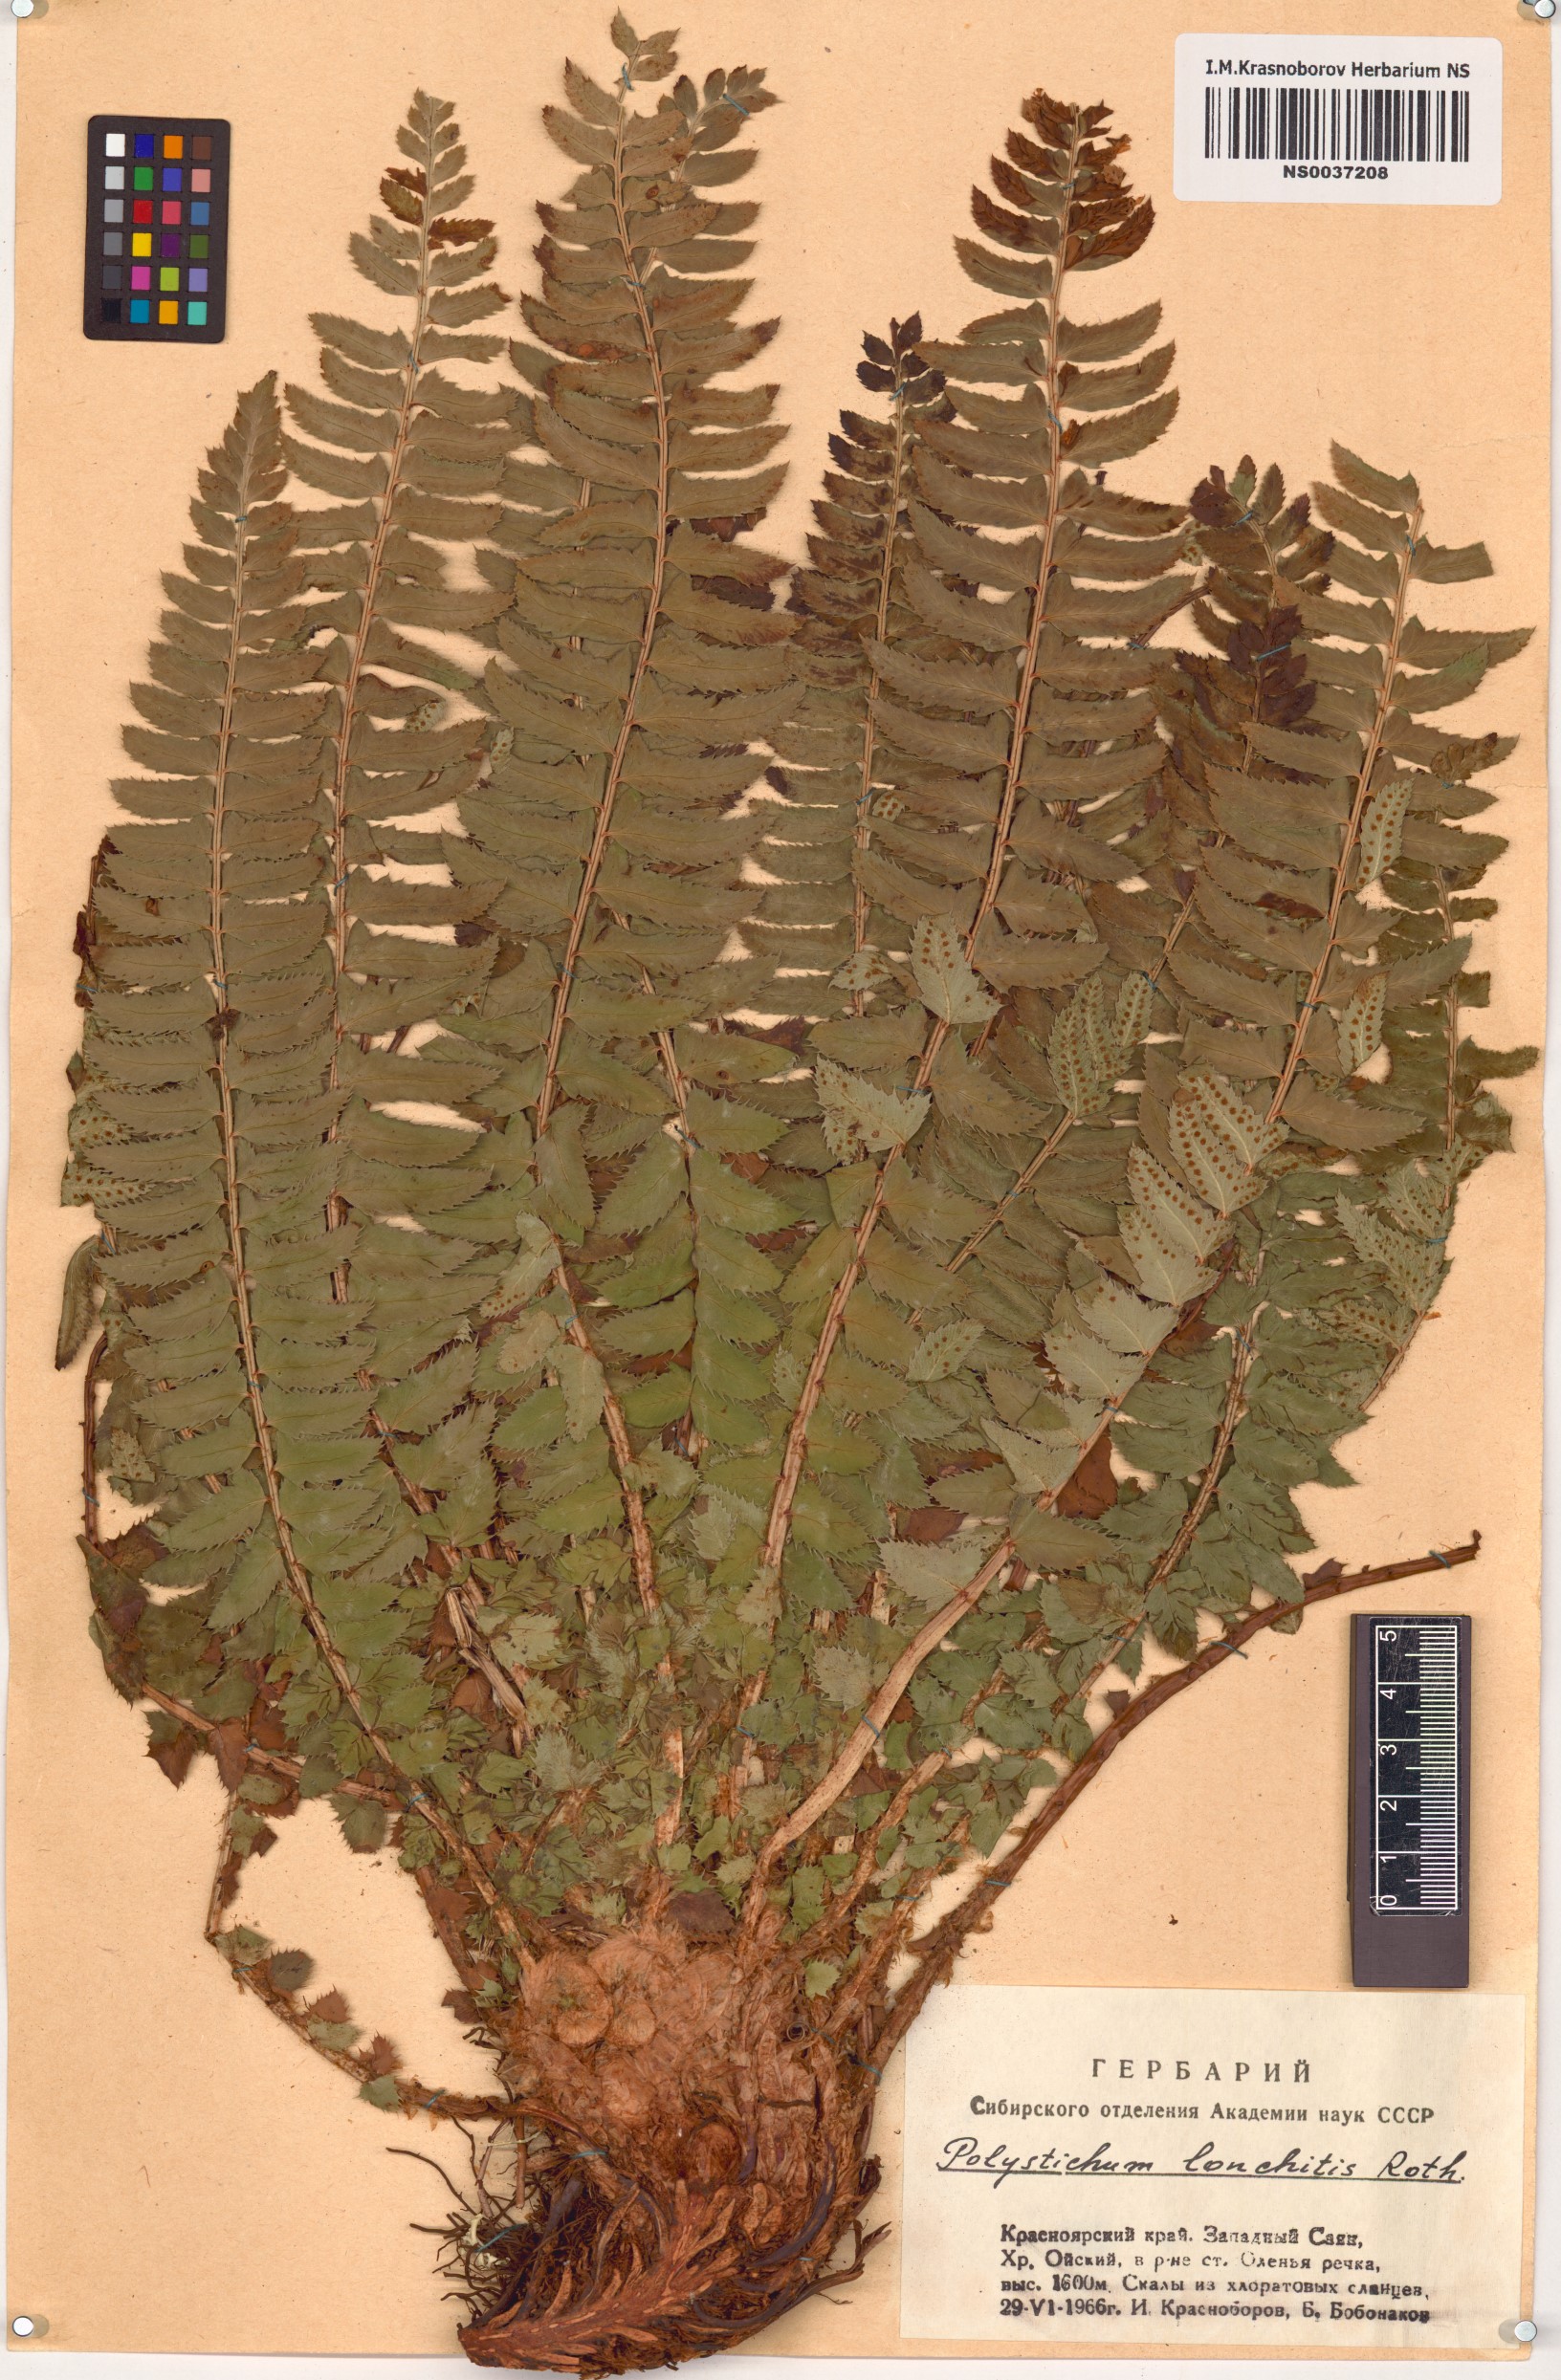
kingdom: Plantae
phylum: Tracheophyta
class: Polypodiopsida
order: Polypodiales
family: Dryopteridaceae
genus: Polystichum
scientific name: Polystichum lonchitis
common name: Holly fern
